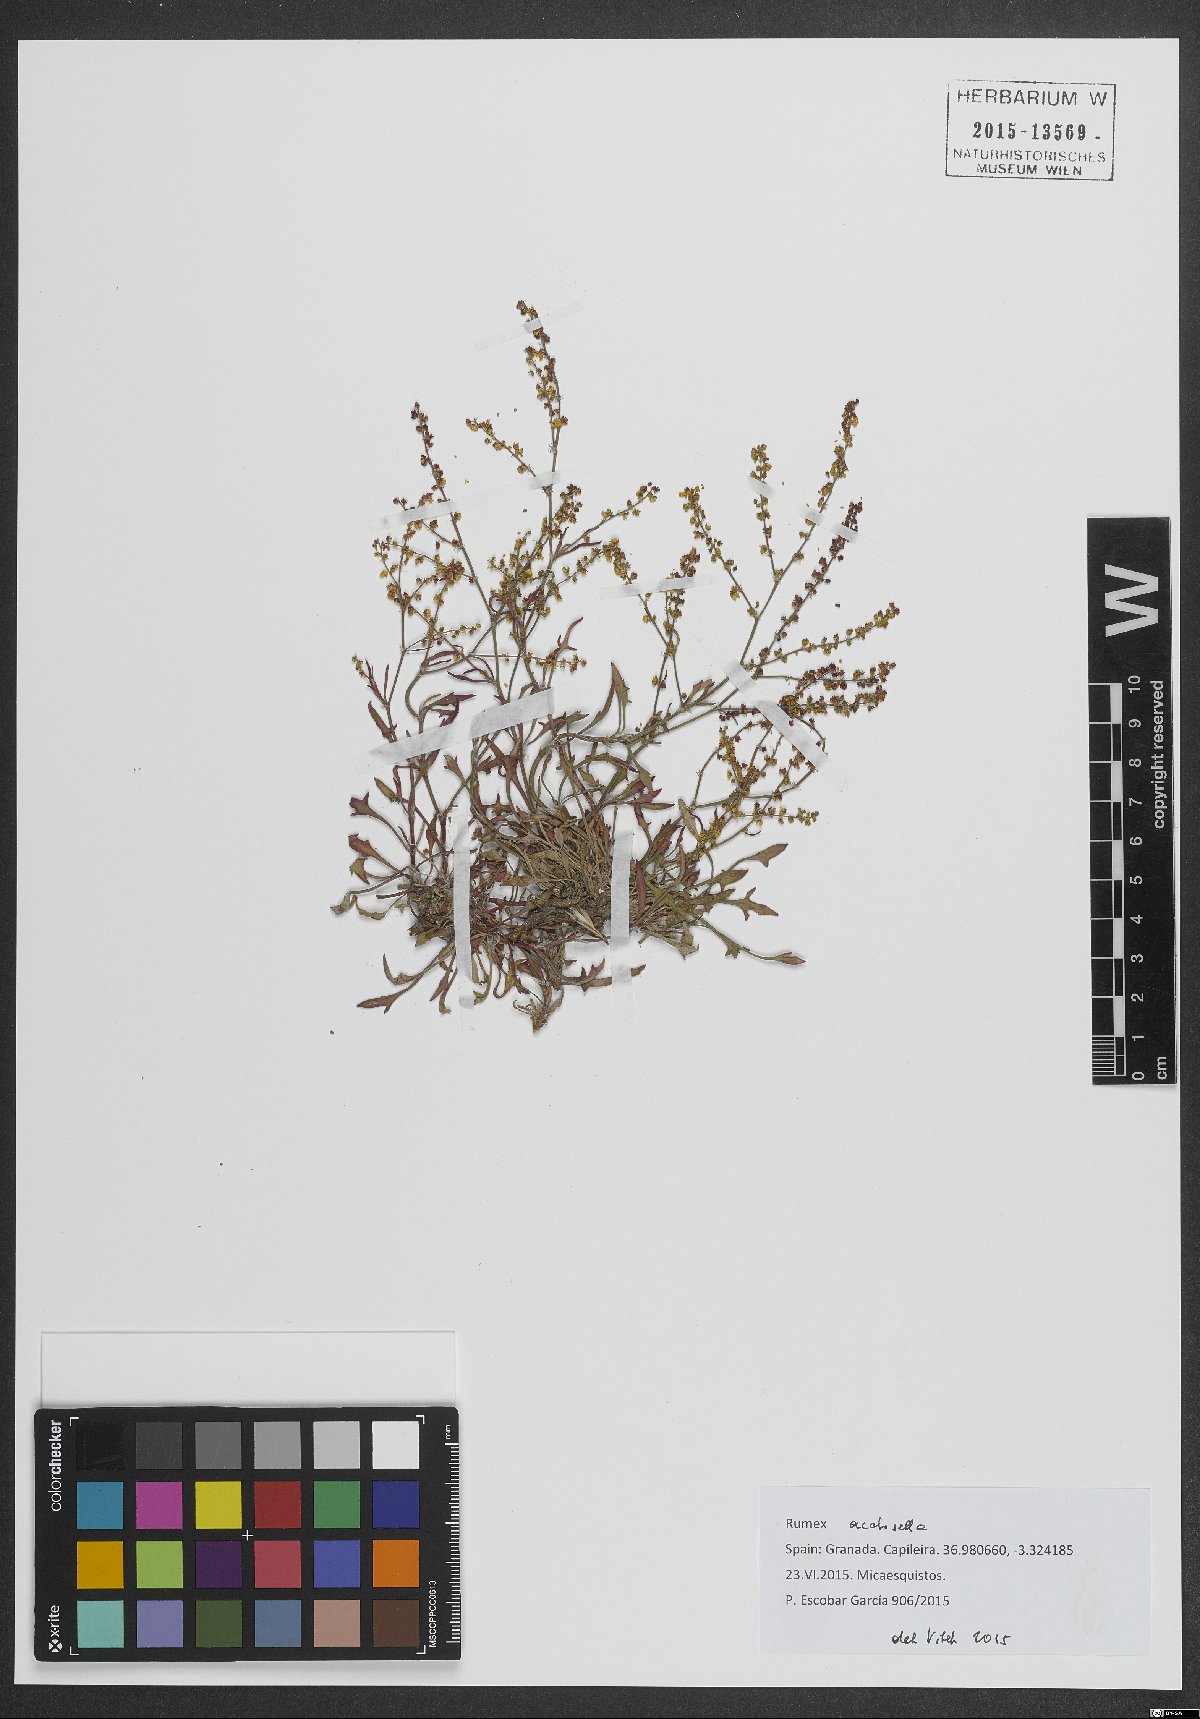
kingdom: Plantae
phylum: Tracheophyta
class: Magnoliopsida
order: Caryophyllales
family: Polygonaceae
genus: Rumex
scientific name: Rumex acetosella
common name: Common sheep sorrel
